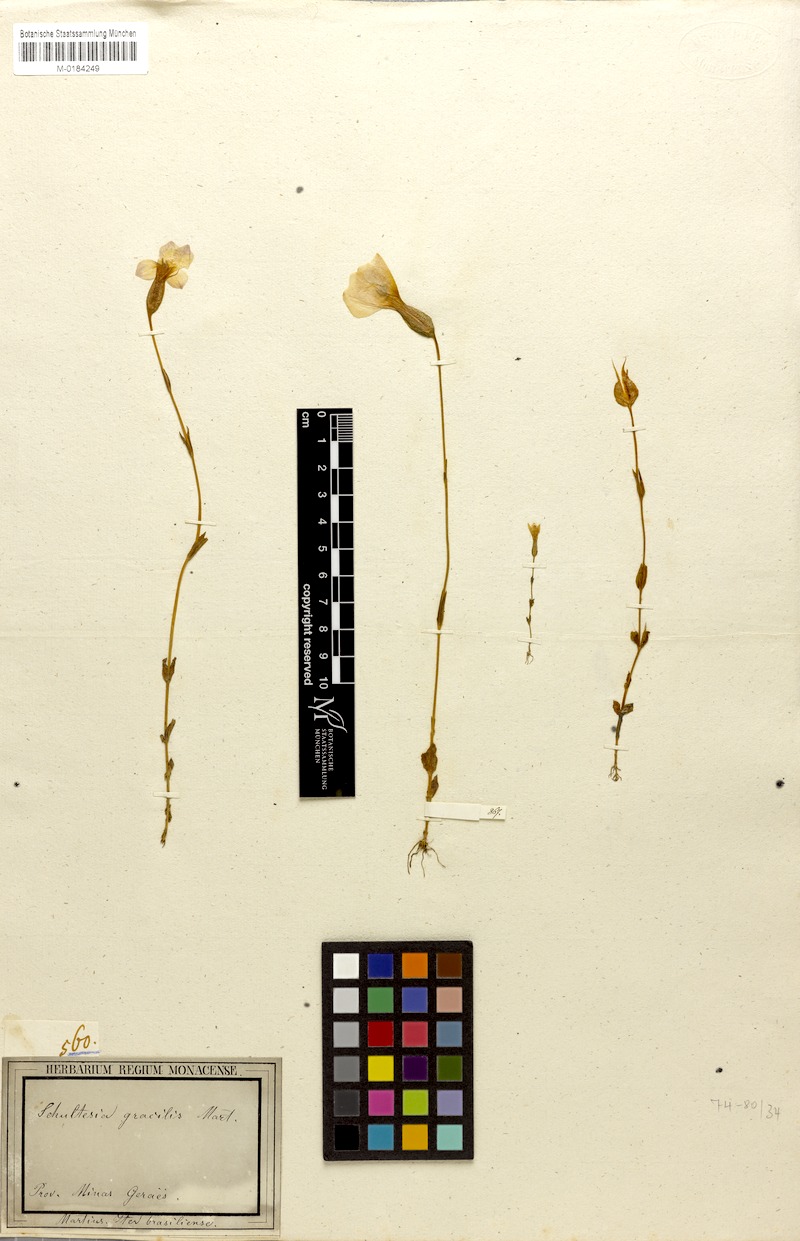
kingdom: Plantae
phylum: Tracheophyta
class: Magnoliopsida
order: Gentianales
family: Gentianaceae
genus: Schultesia
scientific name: Schultesia gracilis
